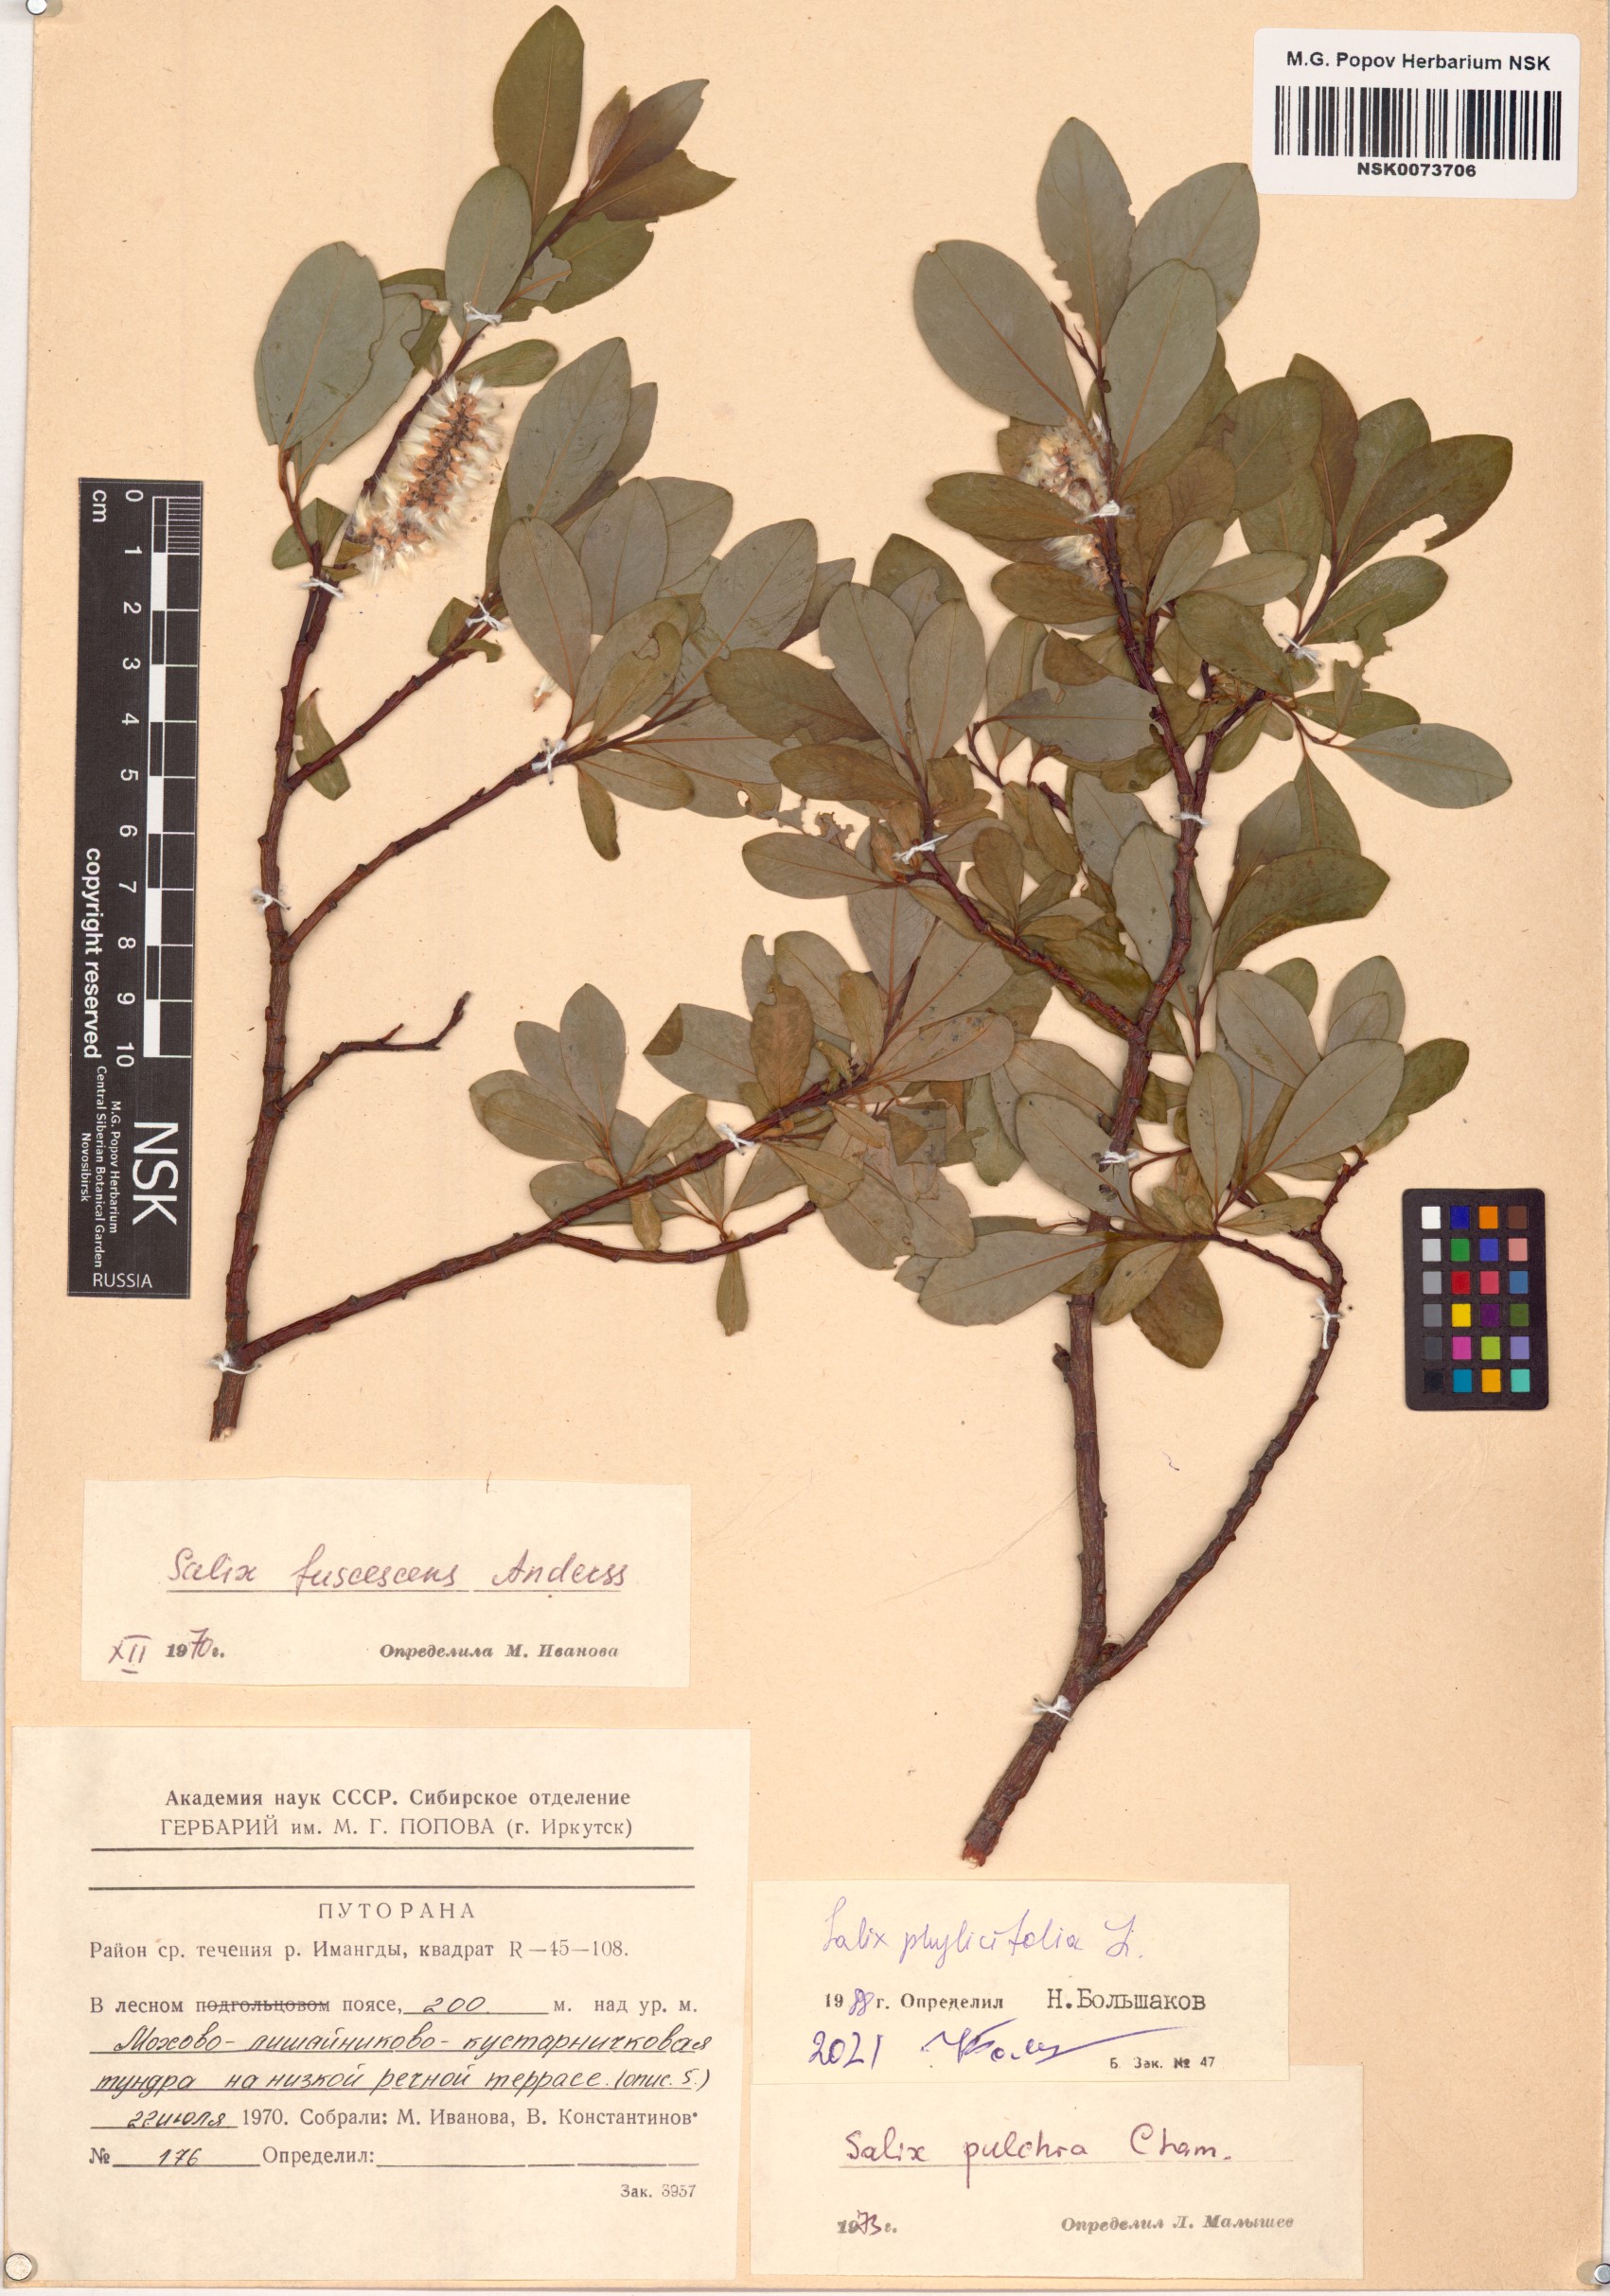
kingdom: Plantae
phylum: Tracheophyta
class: Magnoliopsida
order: Malpighiales
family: Salicaceae
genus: Salix
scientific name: Salix phylicifolia
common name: Tea-leaved willow
